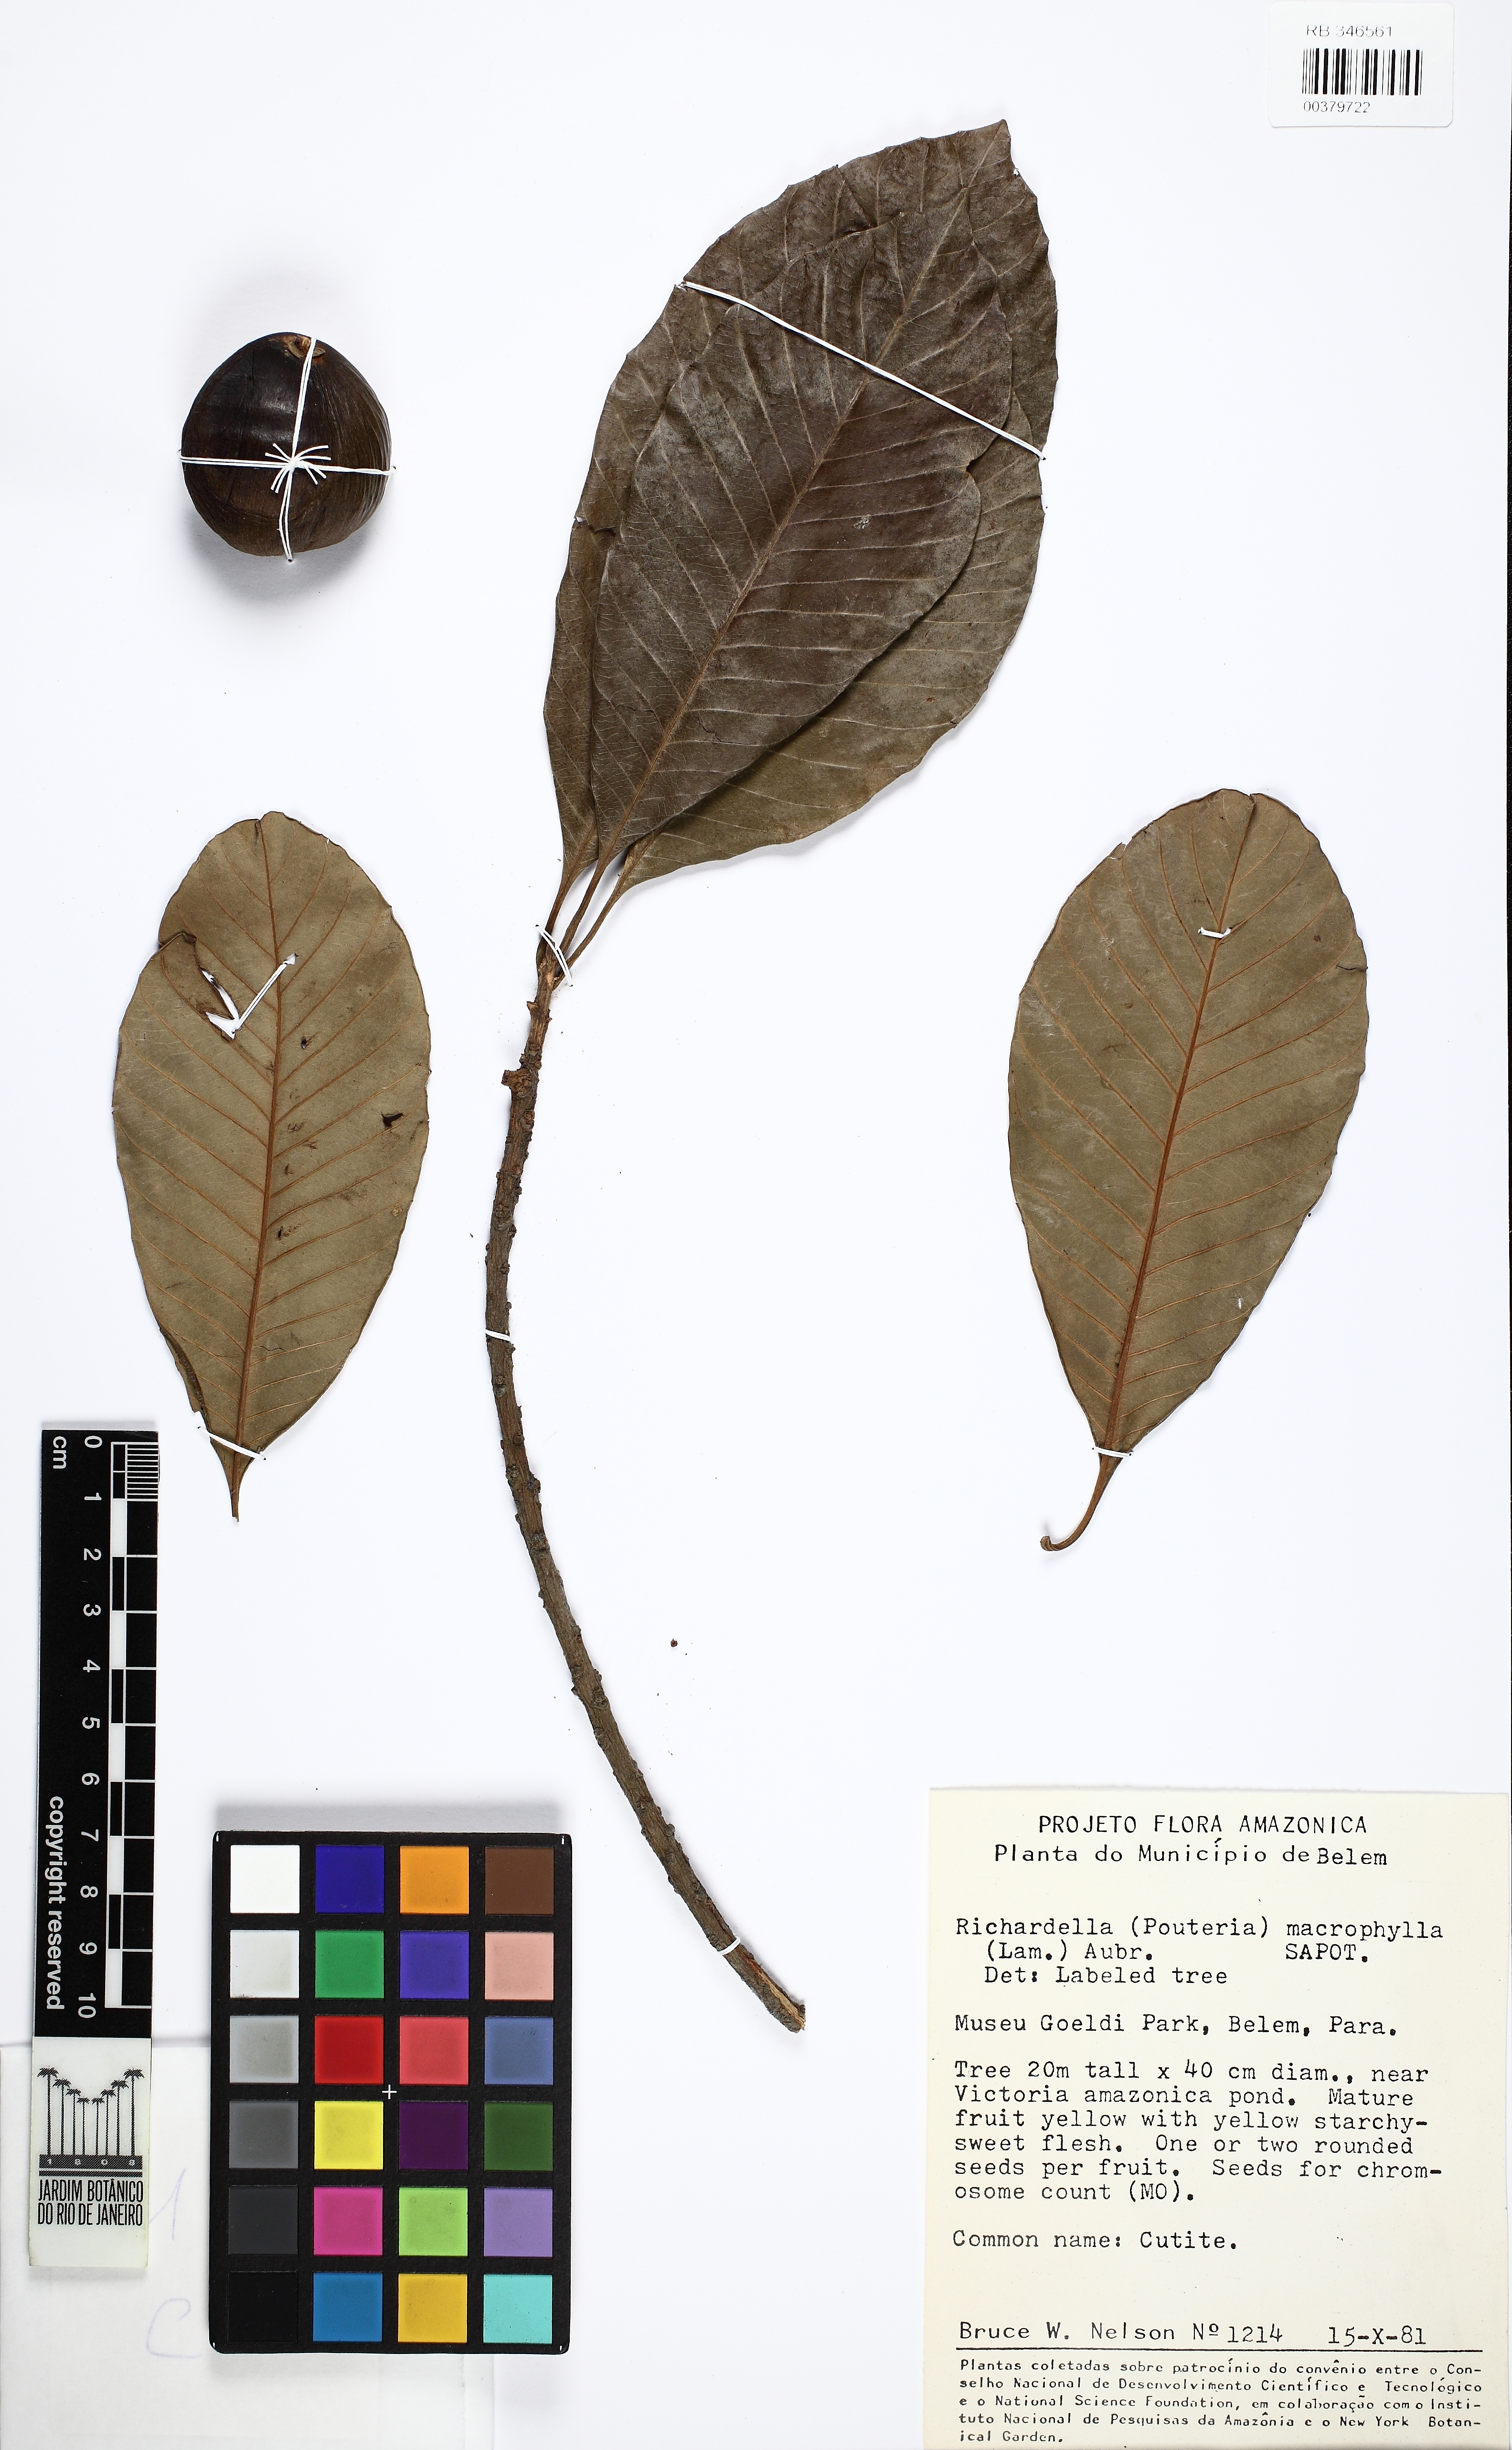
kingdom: Plantae
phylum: Tracheophyta
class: Magnoliopsida
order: Ericales
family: Sapotaceae
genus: Pouteria
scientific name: Pouteria macrophylla
